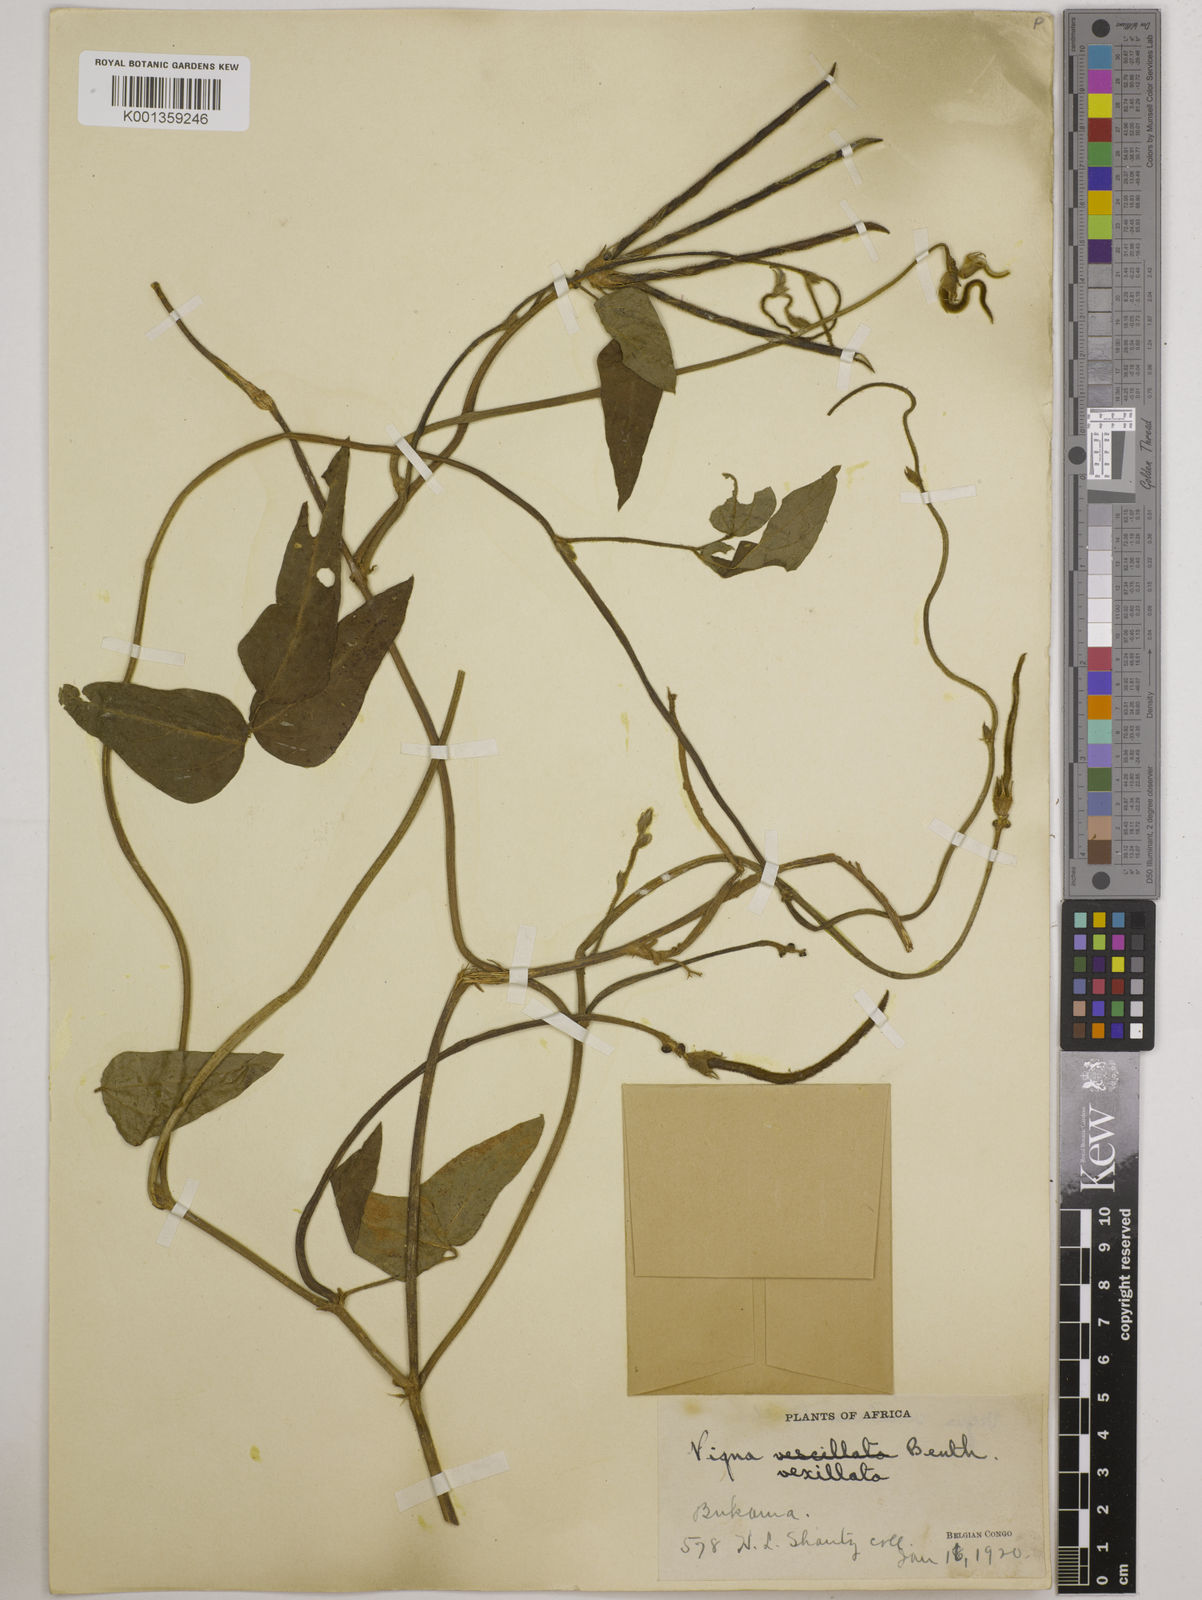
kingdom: Plantae
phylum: Tracheophyta
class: Magnoliopsida
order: Fabales
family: Fabaceae
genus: Vigna
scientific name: Vigna vexillata
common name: Zombi pea
